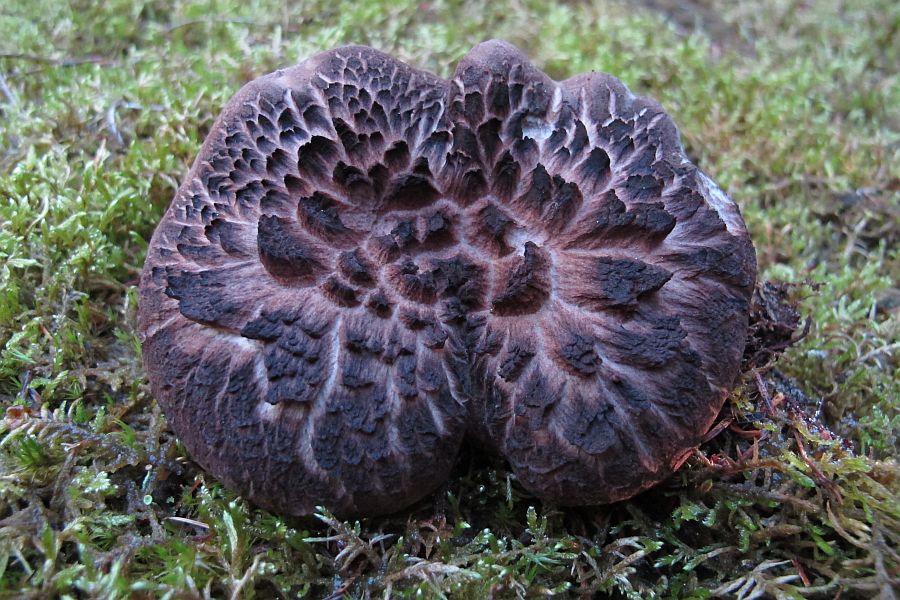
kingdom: Fungi
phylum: Basidiomycota
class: Agaricomycetes
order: Thelephorales
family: Bankeraceae
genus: Sarcodon
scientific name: Sarcodon squamosus
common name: småskællet kødpigsvamp
